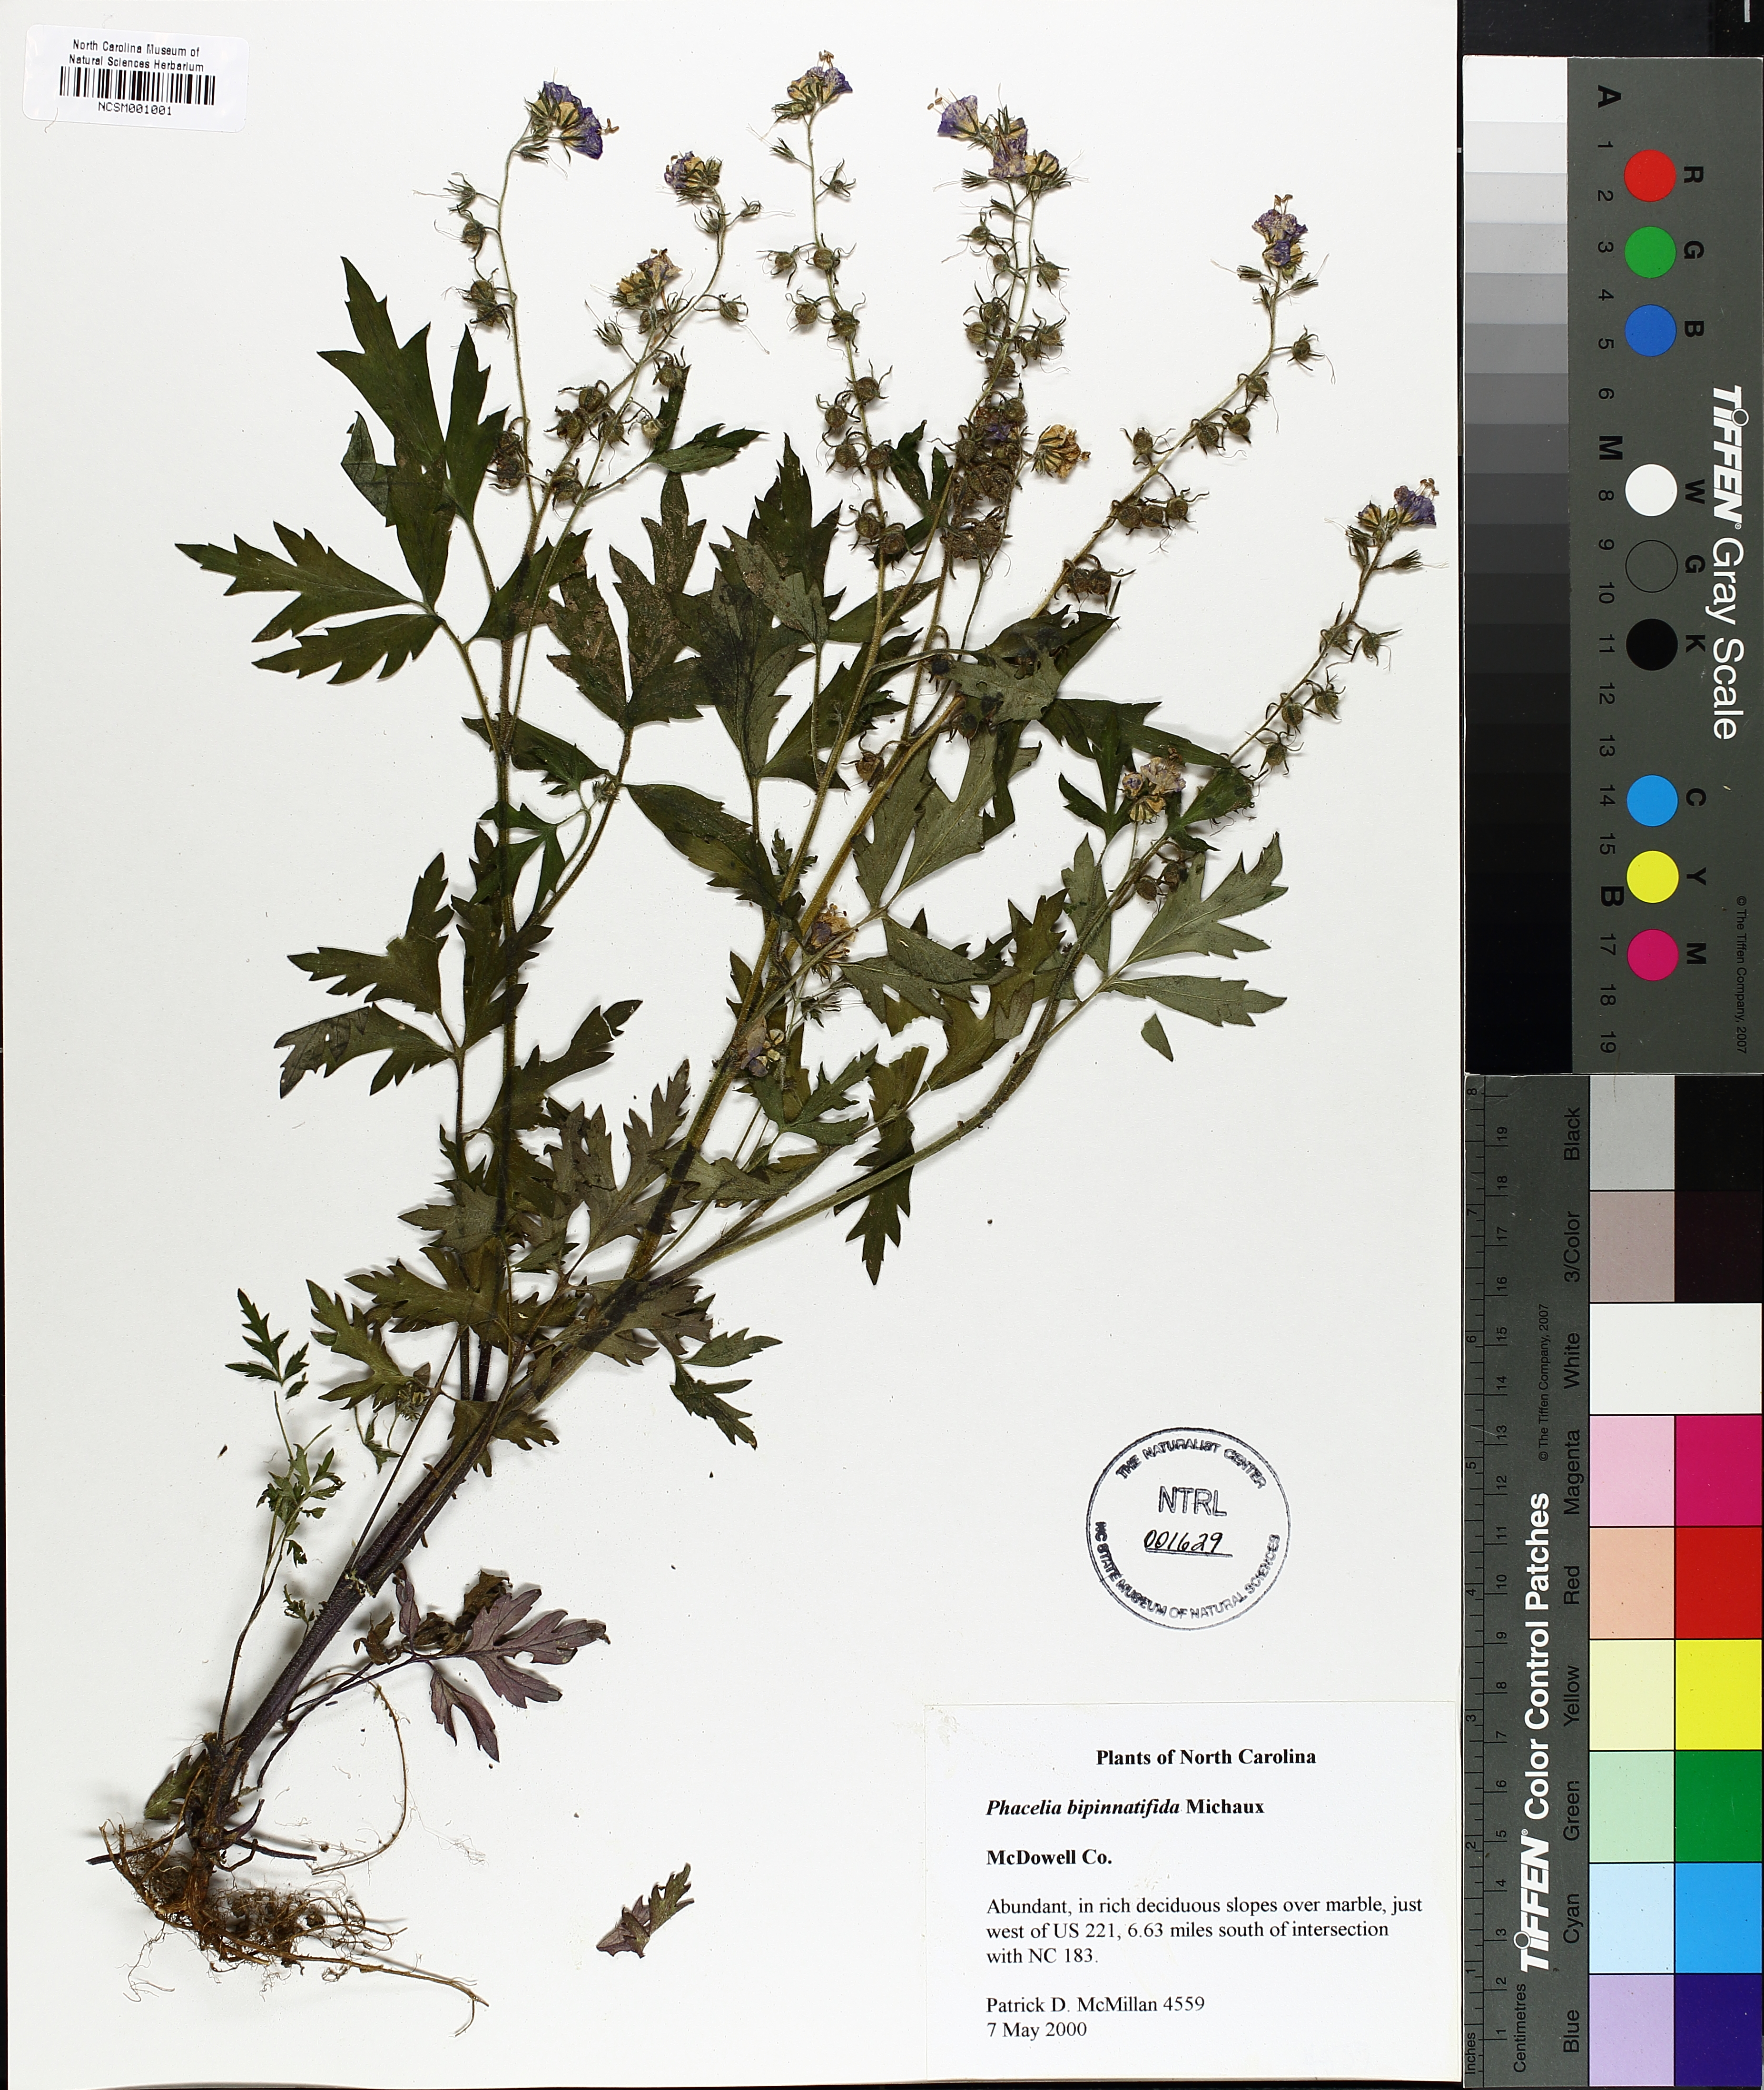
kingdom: Plantae
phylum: Tracheophyta
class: Magnoliopsida
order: Boraginales
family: Hydrophyllaceae
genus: Phacelia
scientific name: Phacelia bipinnatifida
